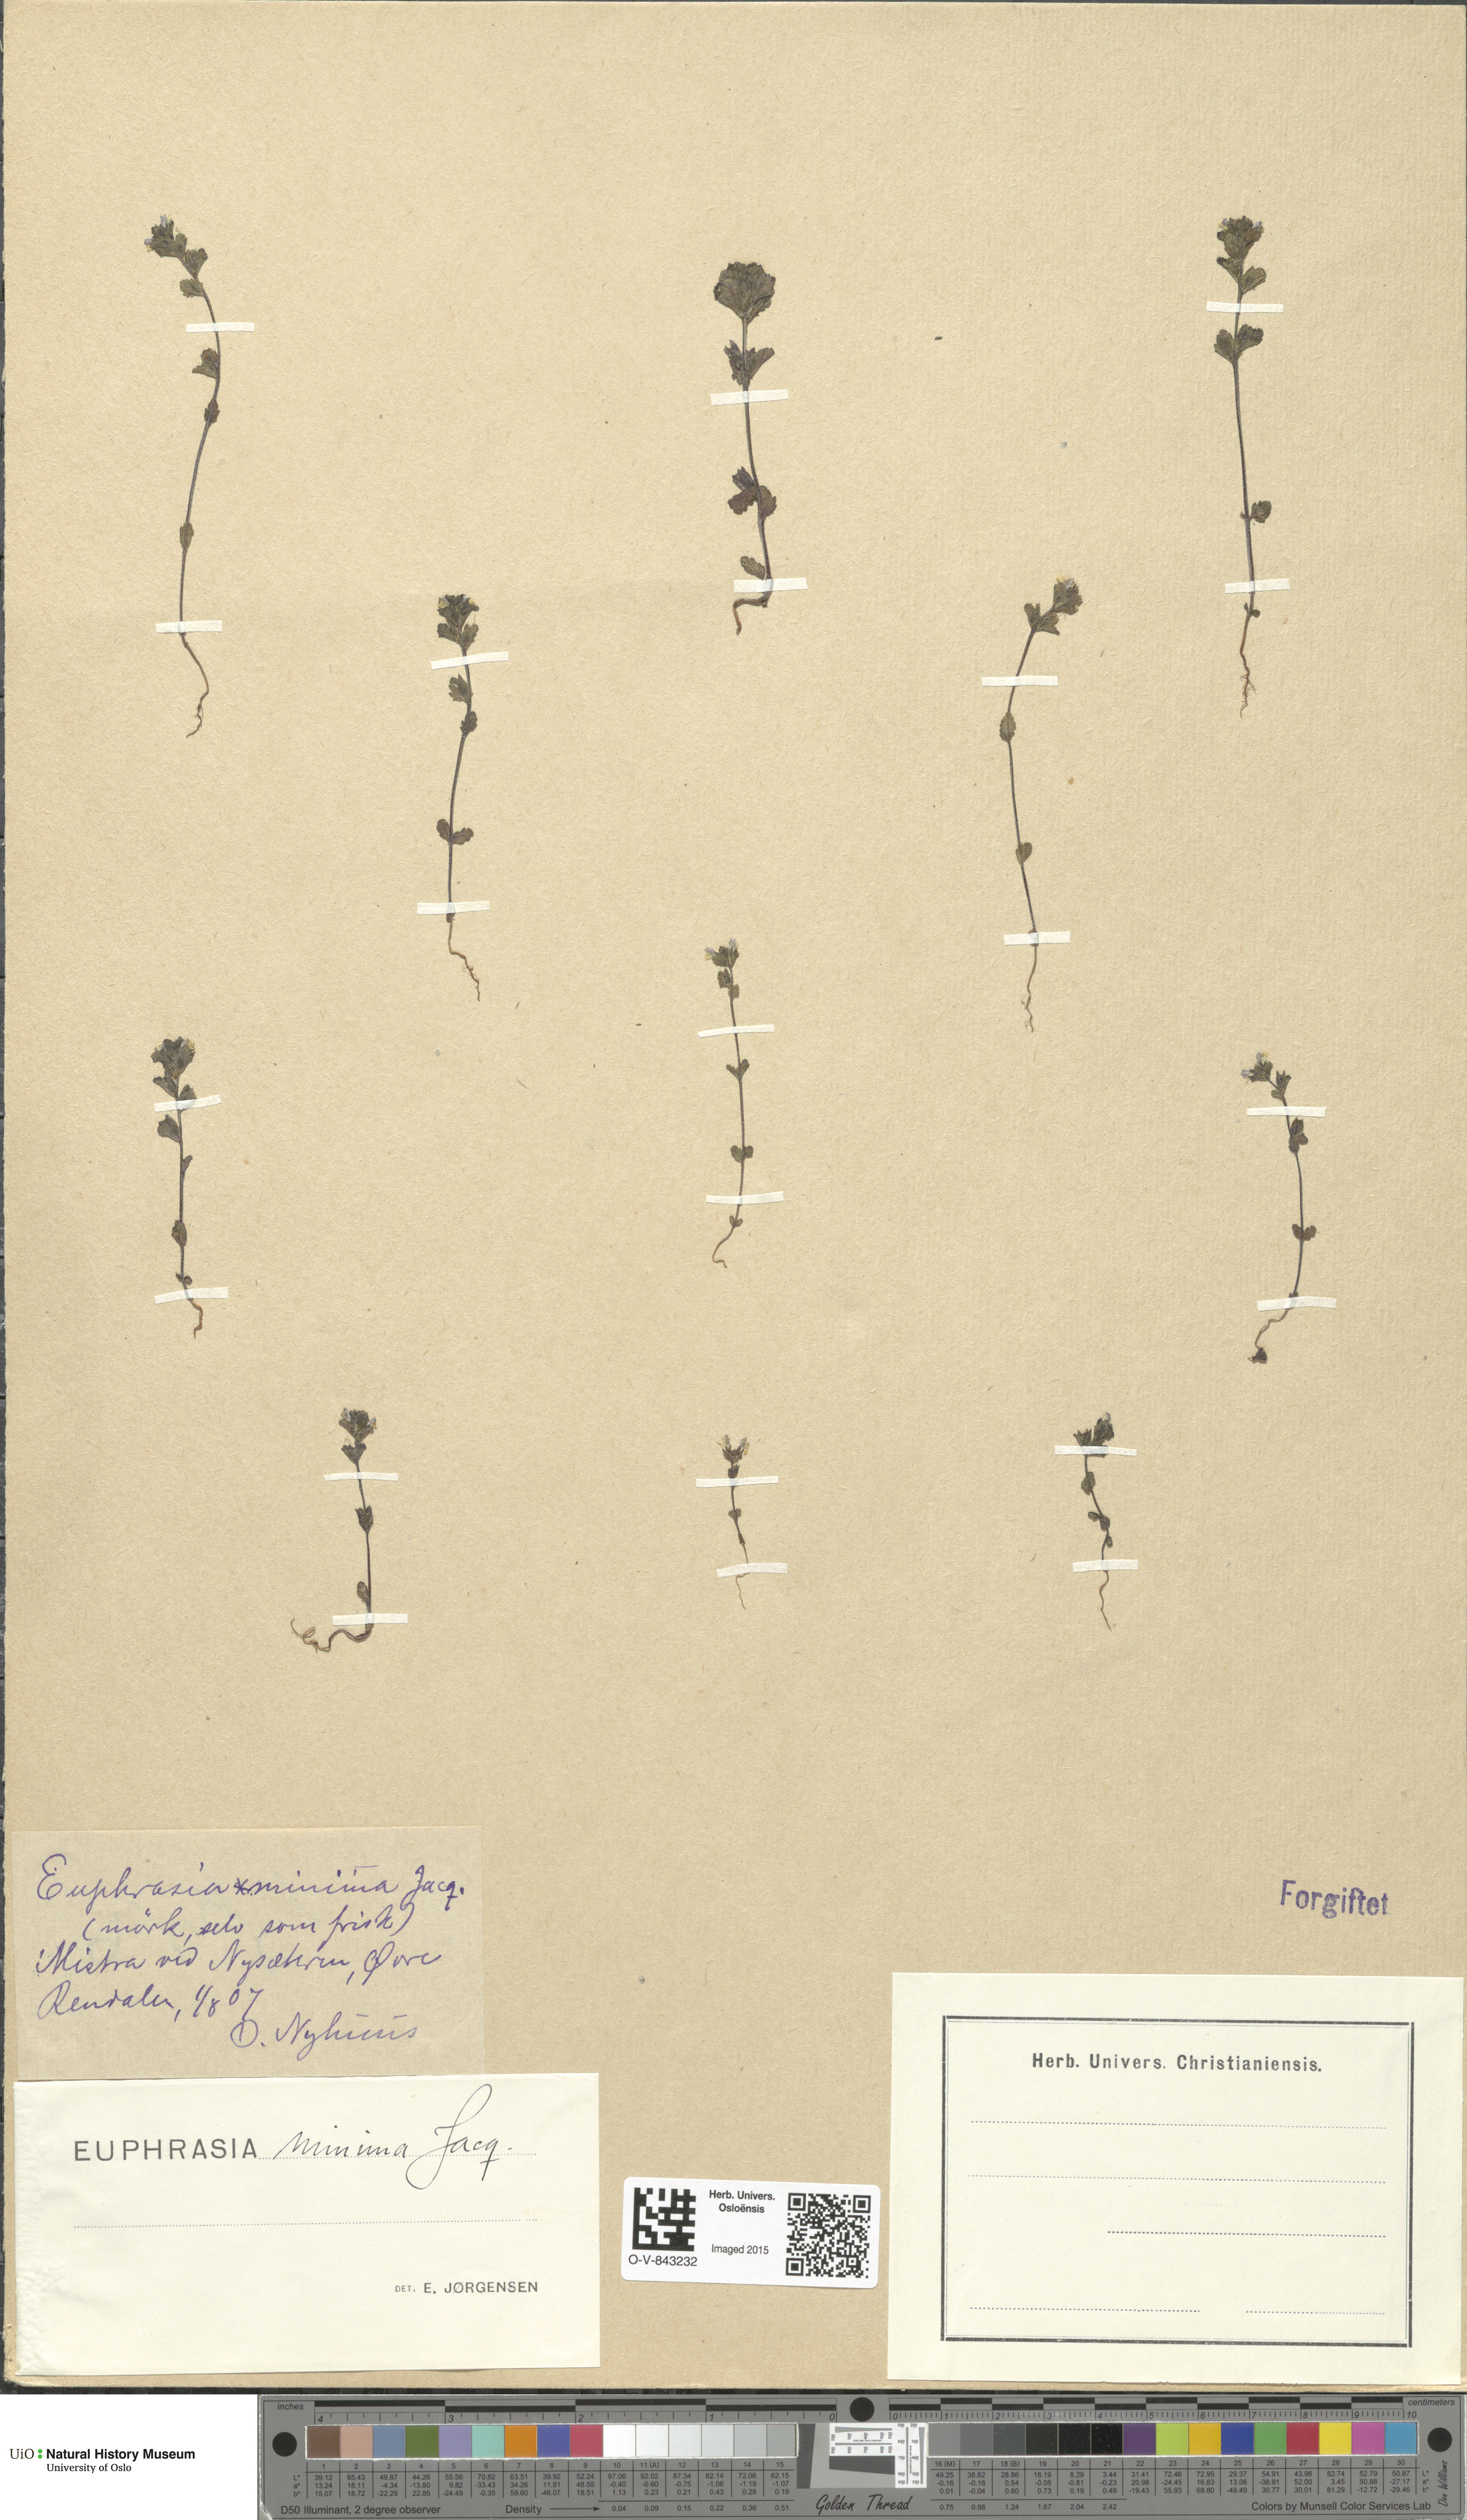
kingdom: Plantae
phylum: Tracheophyta
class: Magnoliopsida
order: Lamiales
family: Orobanchaceae
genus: Euphrasia
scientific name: Euphrasia wettsteinii
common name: Wettstein's eyebright
